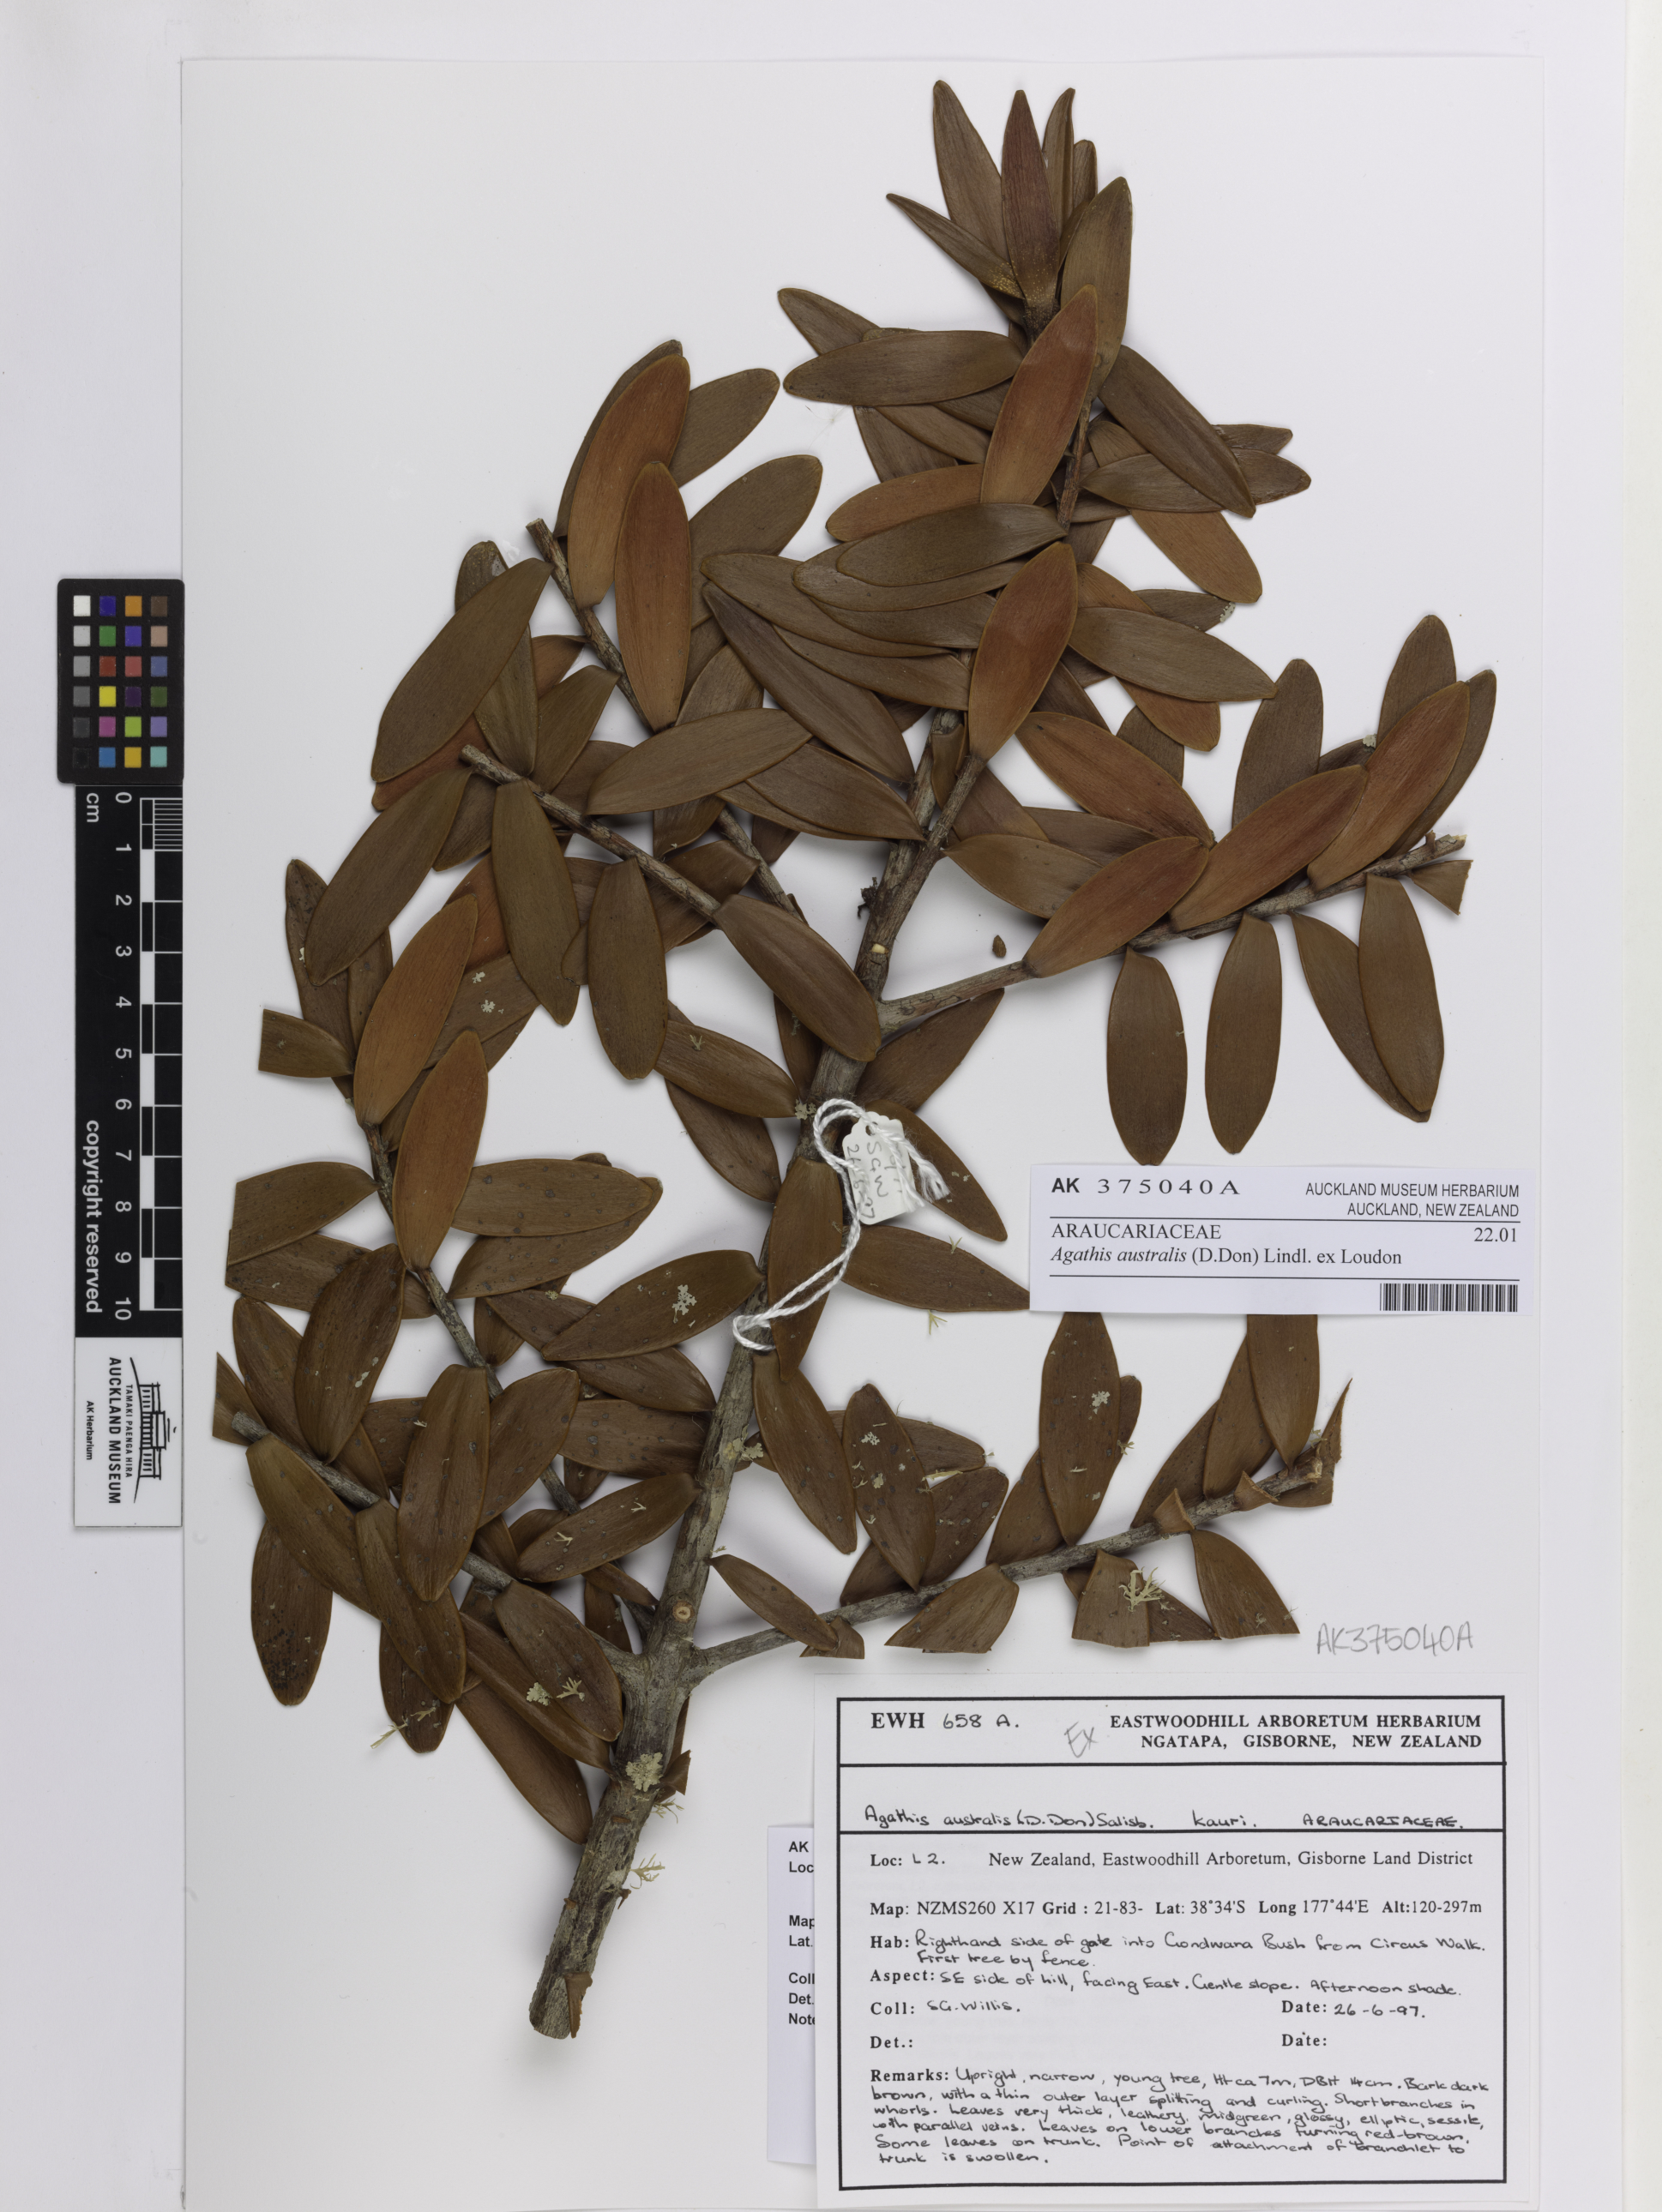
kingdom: Plantae
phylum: Tracheophyta
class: Pinopsida
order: Pinales
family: Araucariaceae
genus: Agathis
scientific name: Agathis australis
